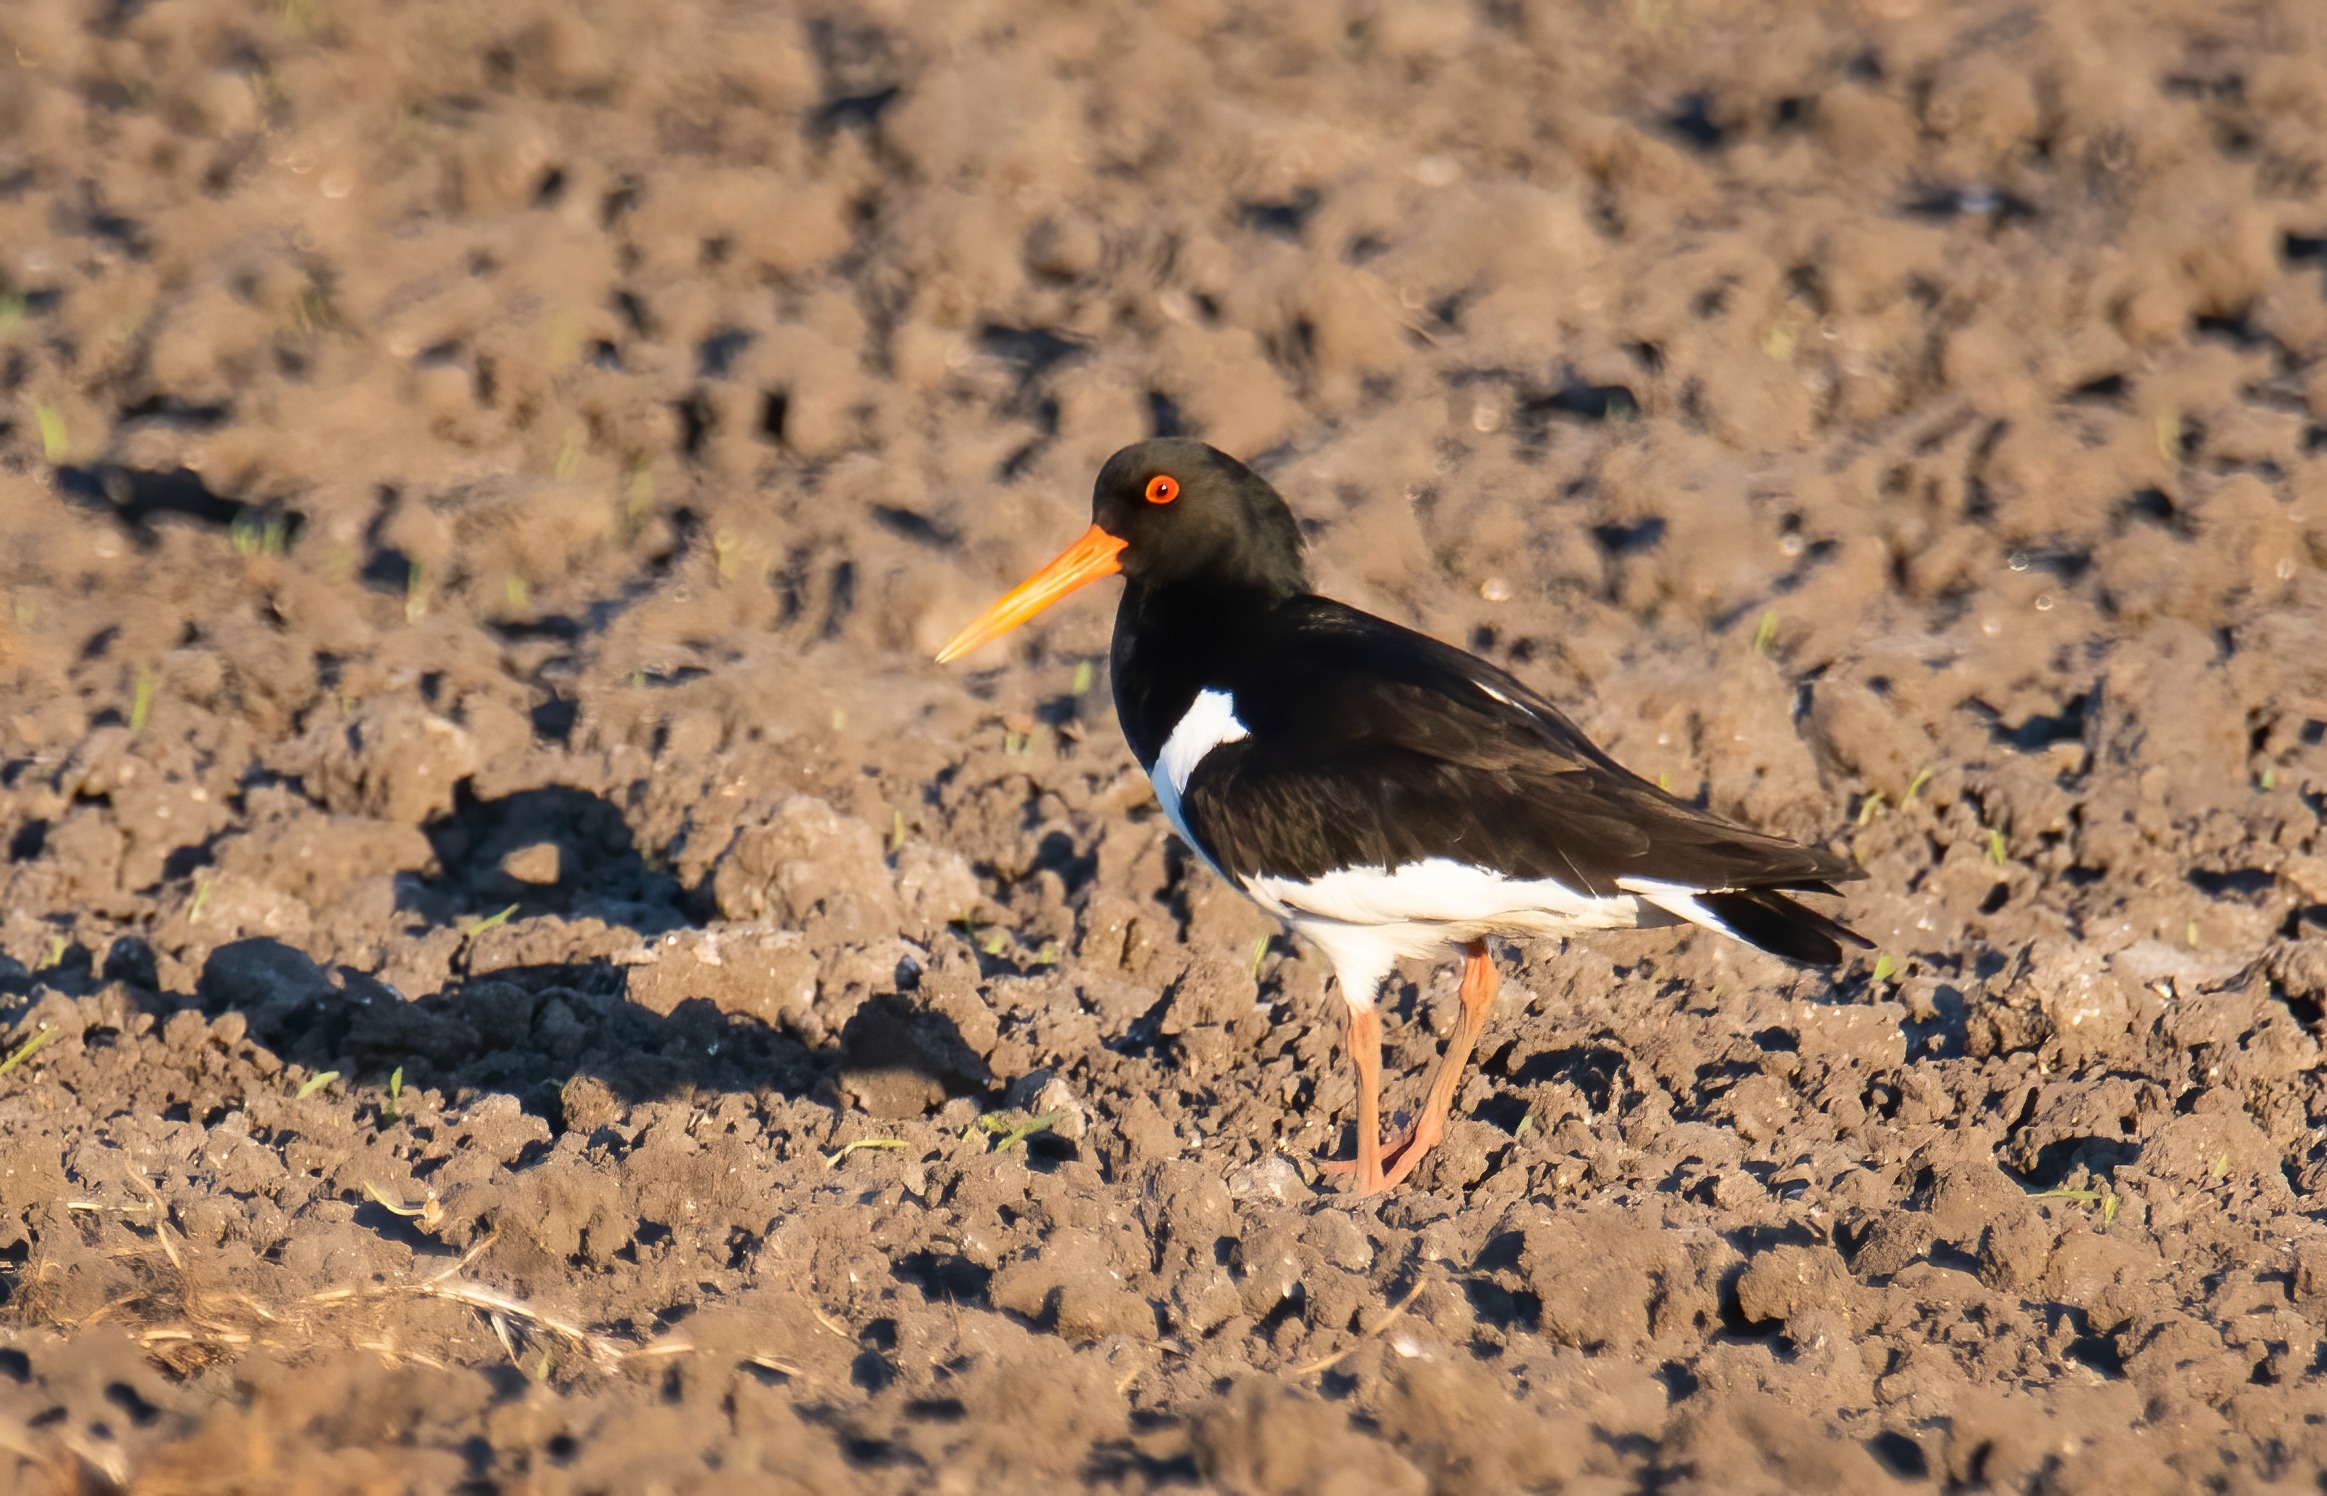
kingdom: Animalia
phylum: Chordata
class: Aves
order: Charadriiformes
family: Haematopodidae
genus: Haematopus
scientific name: Haematopus ostralegus
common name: Strandskade
